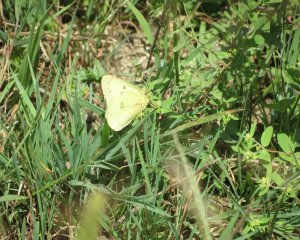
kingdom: Animalia
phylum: Arthropoda
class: Insecta
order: Lepidoptera
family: Pieridae
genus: Colias
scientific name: Colias philodice
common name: Clouded Sulphur
